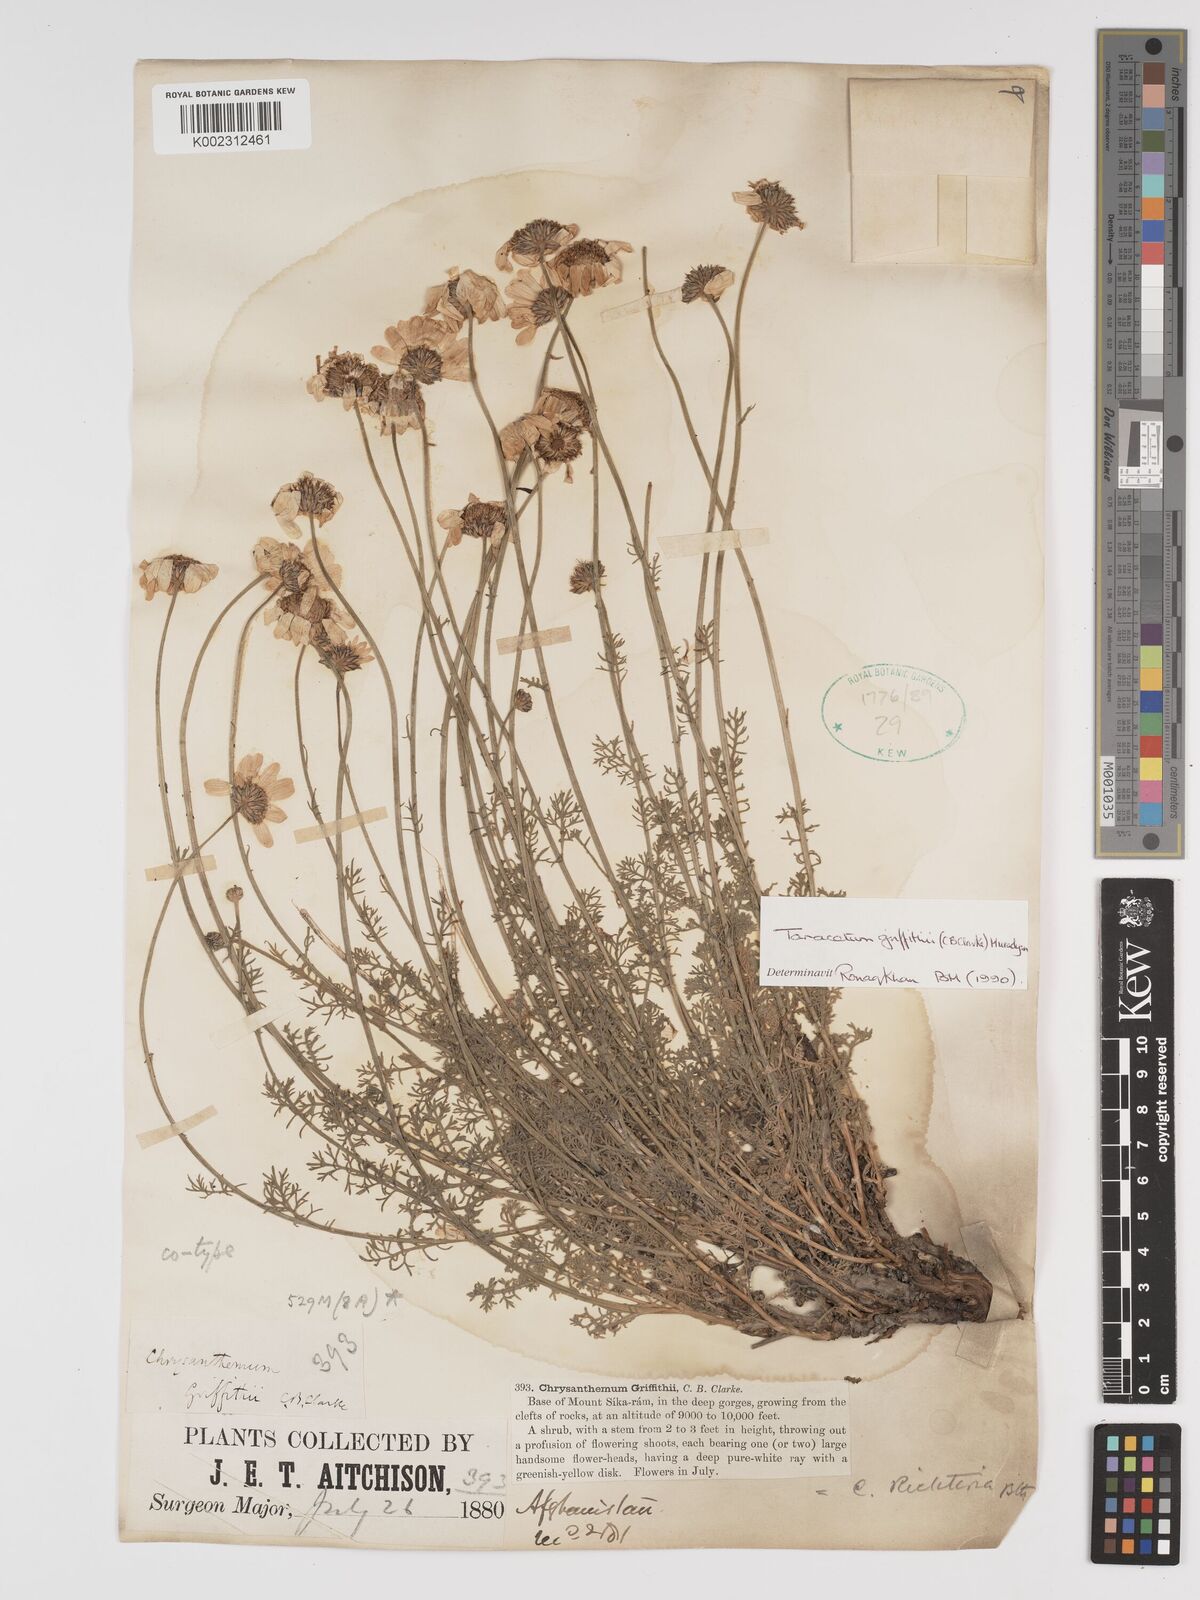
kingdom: Plantae
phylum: Tracheophyta
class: Magnoliopsida
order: Asterales
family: Asteraceae
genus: Tanacetum
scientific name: Tanacetum stoliczkae
